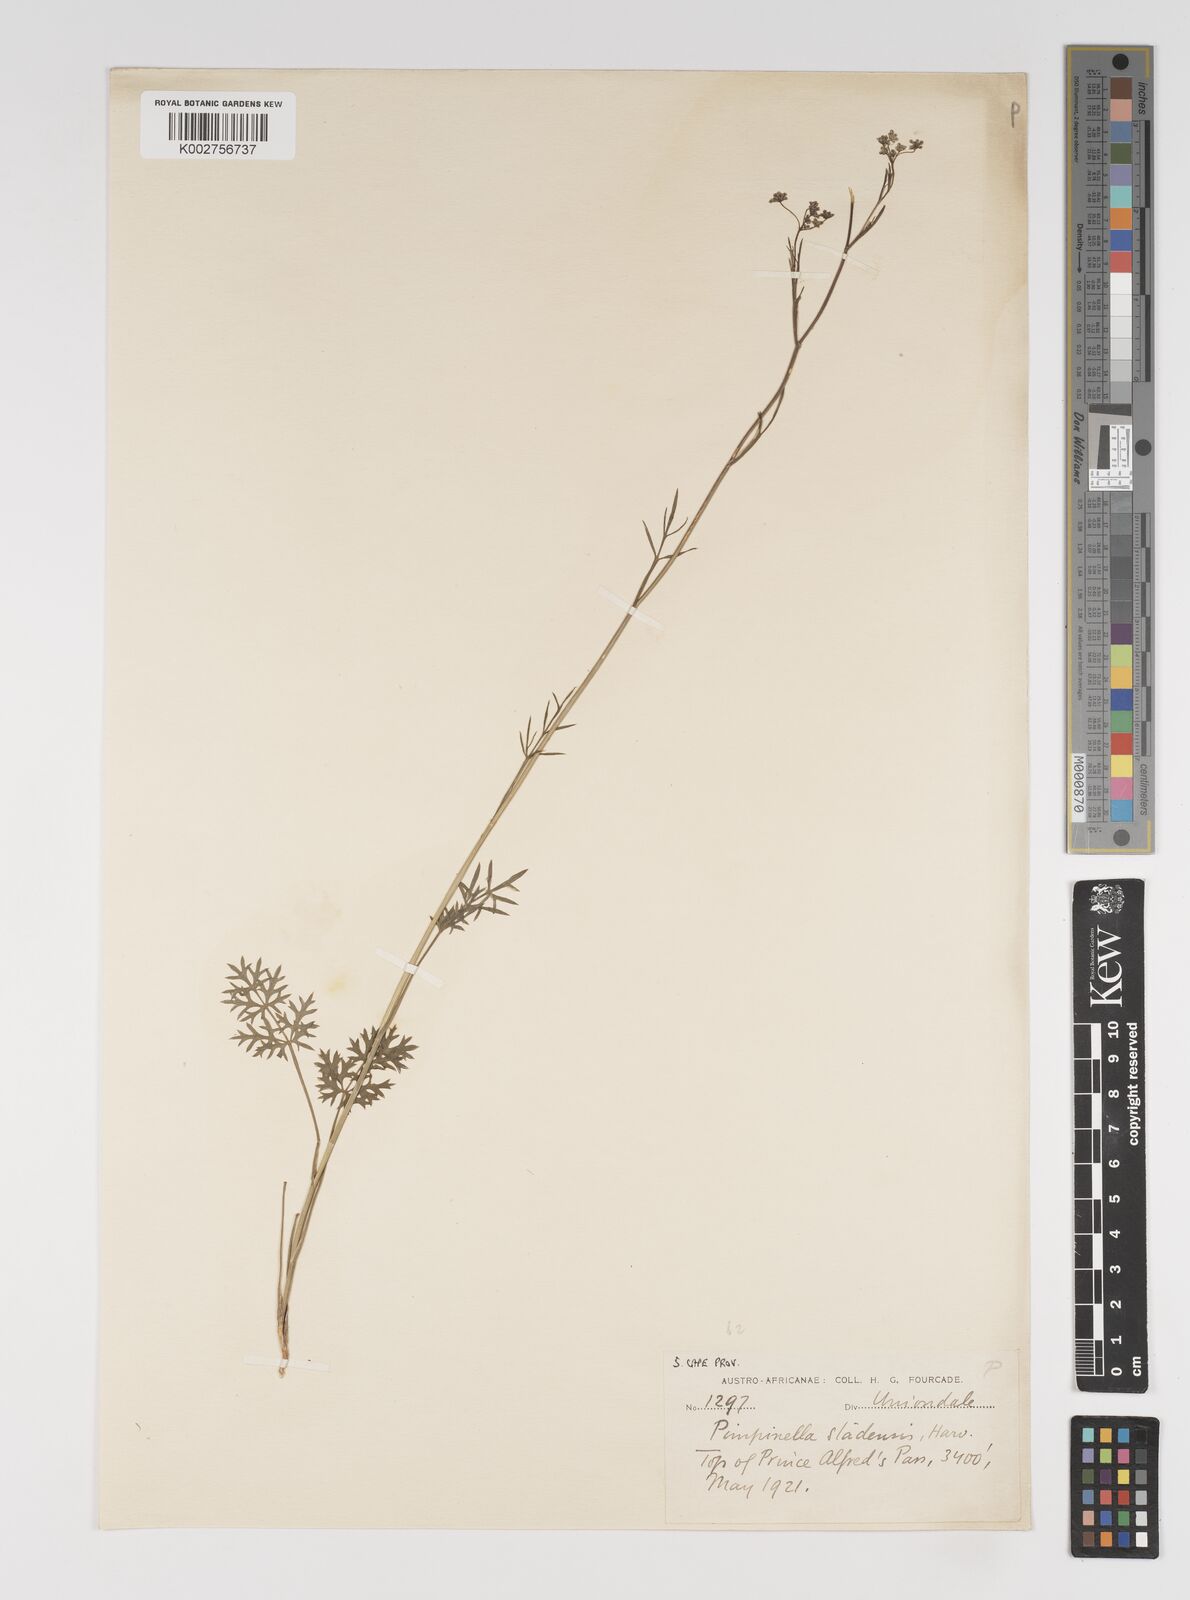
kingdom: Plantae
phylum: Tracheophyta
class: Magnoliopsida
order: Apiales
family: Apiaceae
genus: Pimpinella
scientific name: Pimpinella caffra
